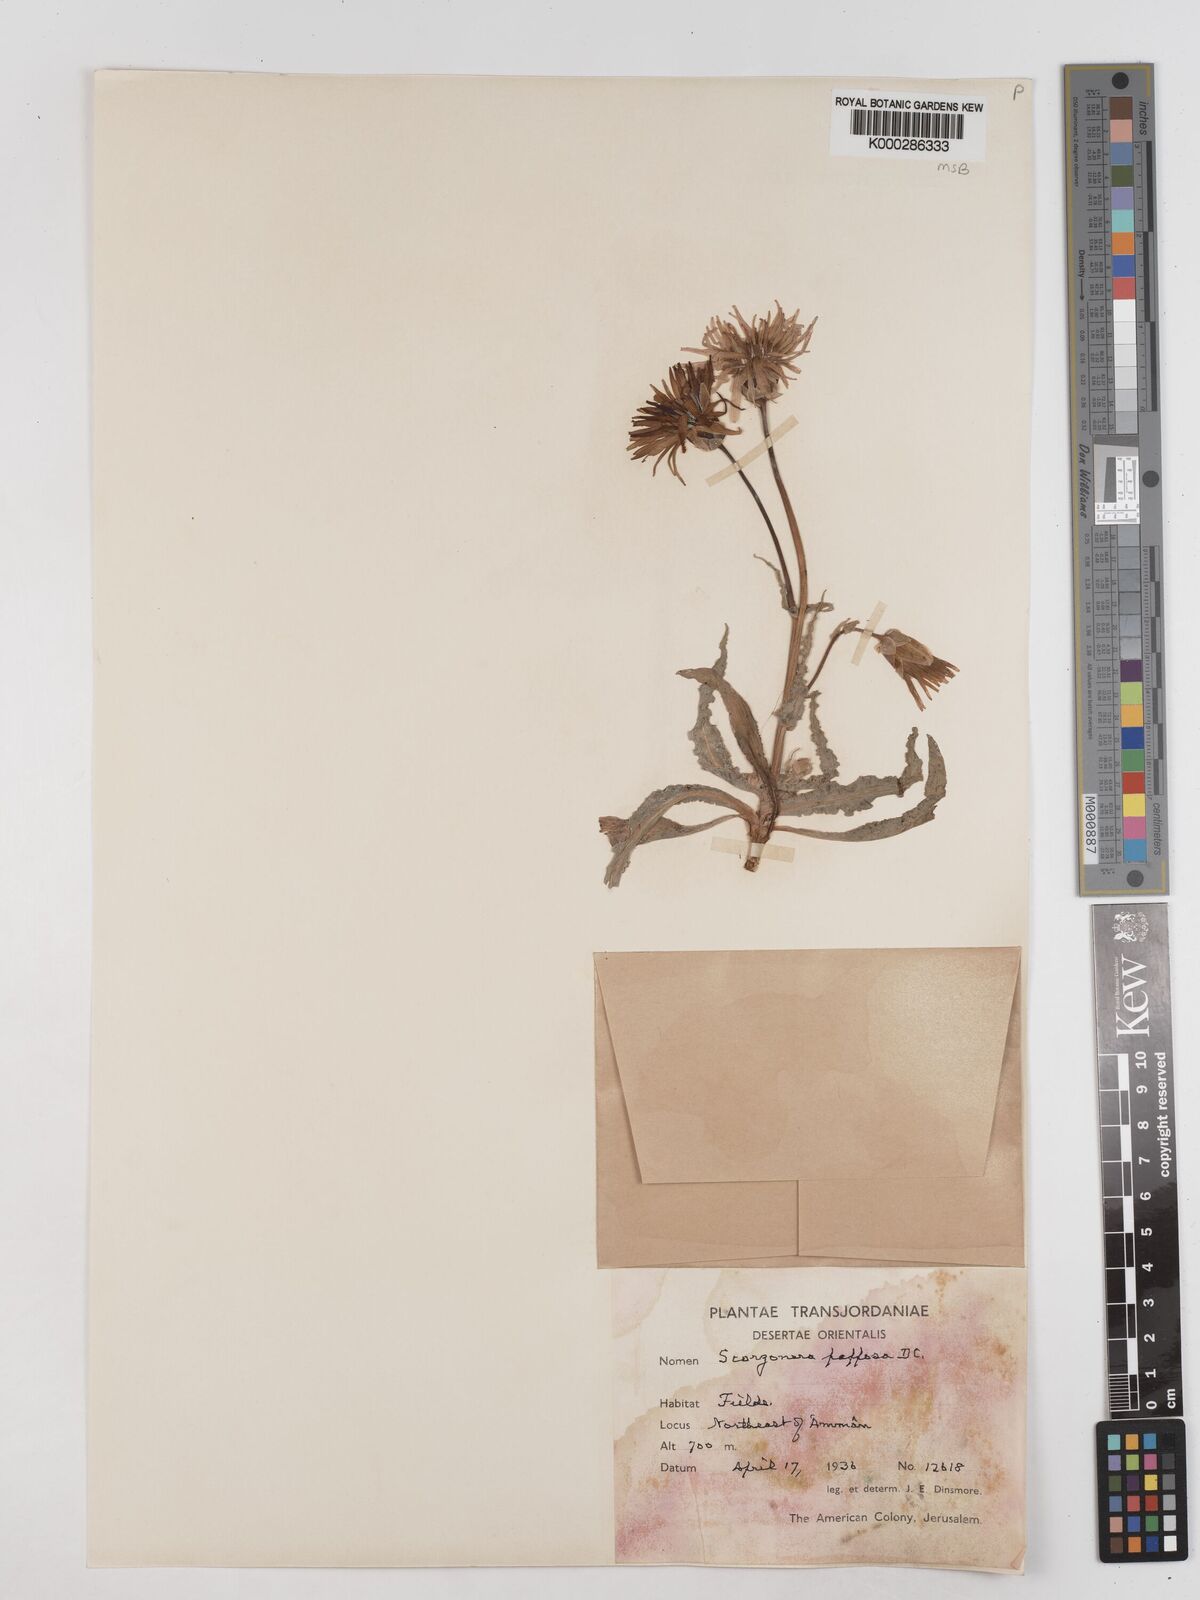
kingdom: Plantae
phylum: Tracheophyta
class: Magnoliopsida
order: Asterales
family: Asteraceae
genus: Pseudopodospermum
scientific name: Pseudopodospermum papposum
